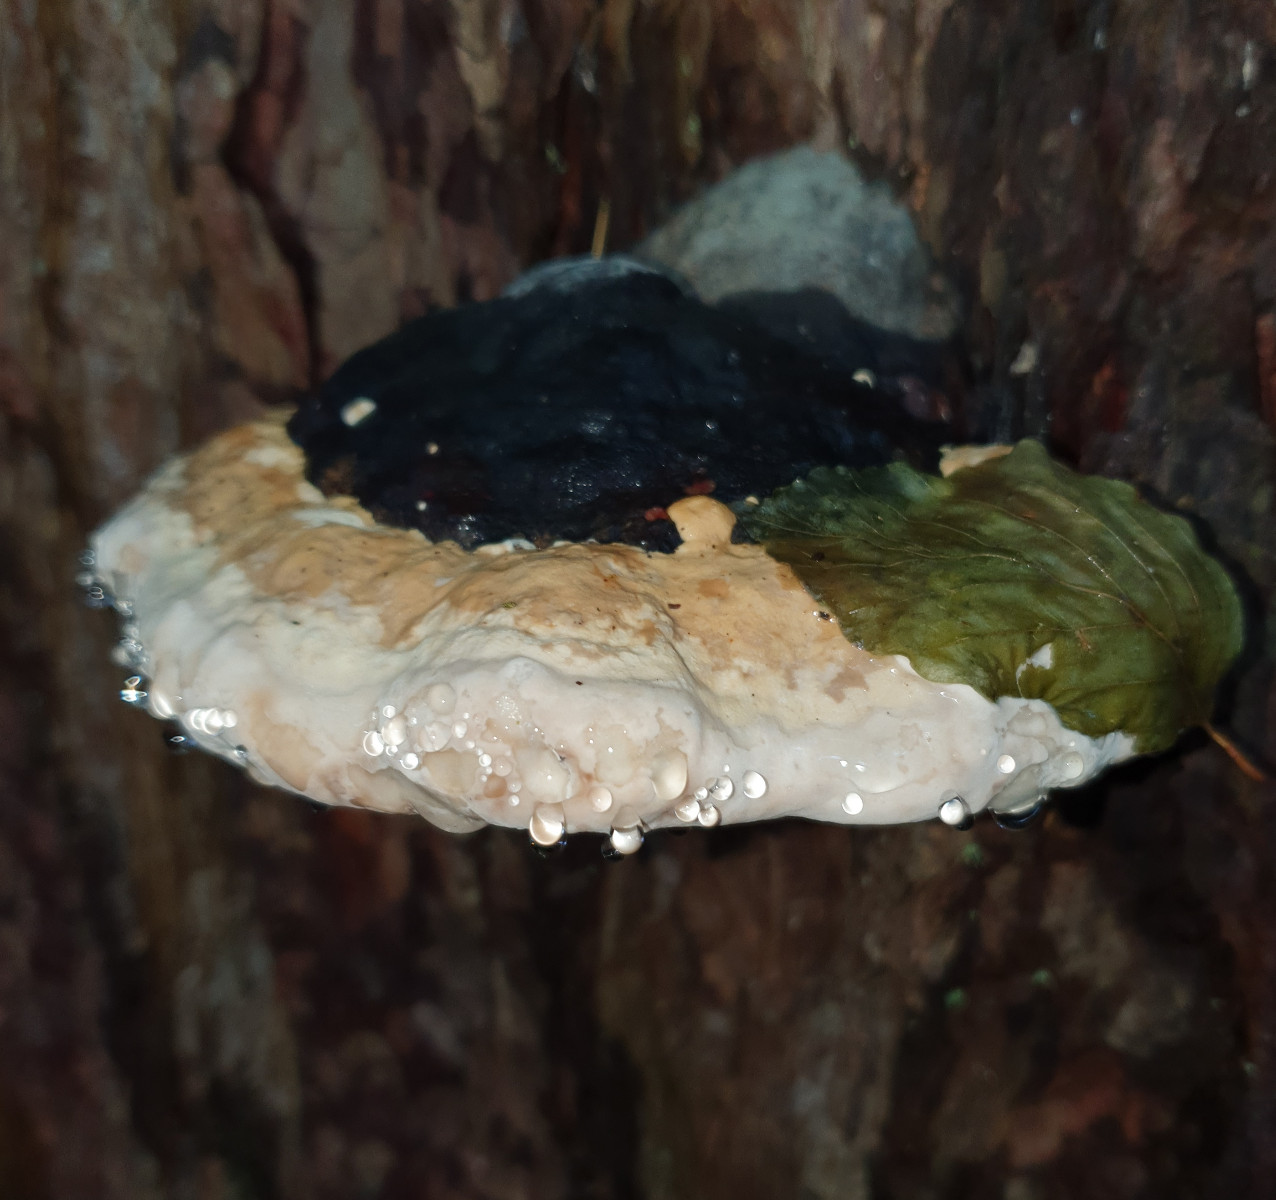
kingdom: Fungi
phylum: Basidiomycota
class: Agaricomycetes
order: Polyporales
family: Fomitopsidaceae
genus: Fomitopsis
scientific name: Fomitopsis pinicola
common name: randbæltet hovporesvamp
